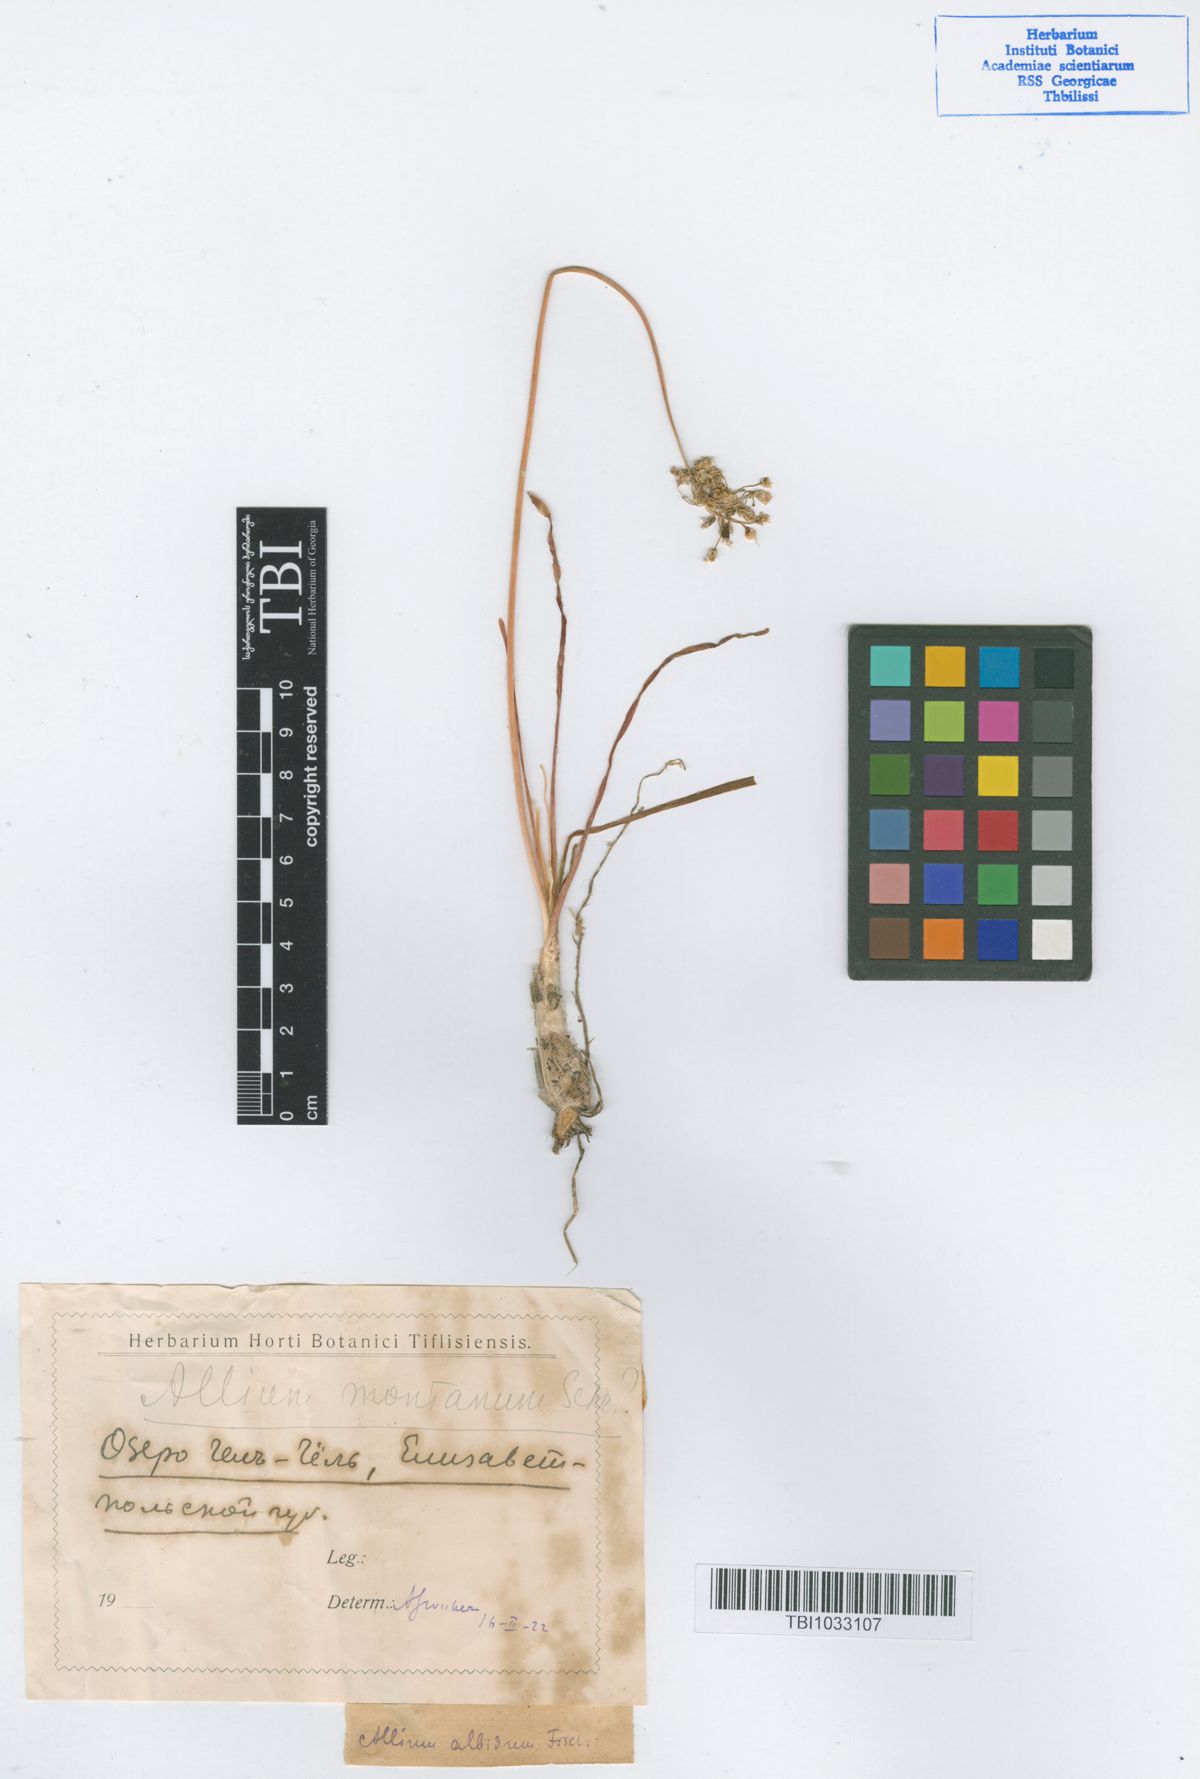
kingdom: Plantae
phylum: Tracheophyta
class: Liliopsida
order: Asparagales
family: Amaryllidaceae
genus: Allium
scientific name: Allium denudatum
